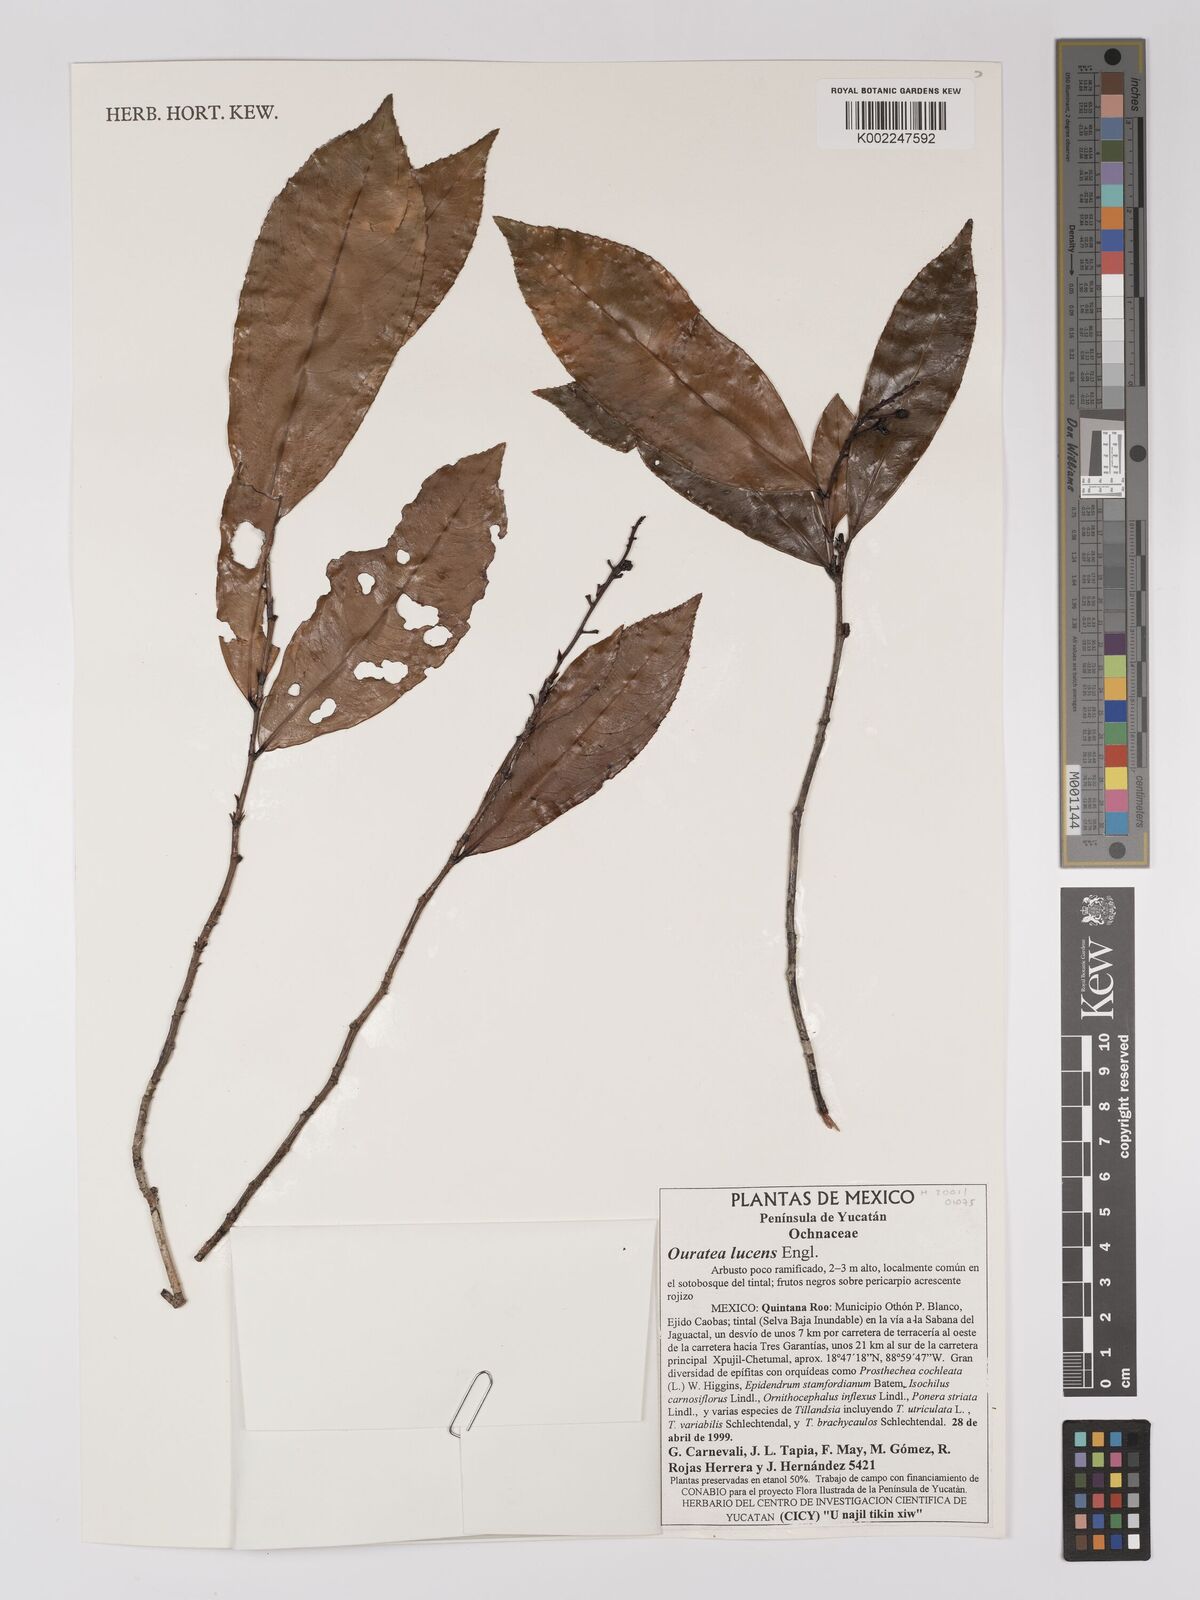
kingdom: Plantae
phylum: Tracheophyta
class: Magnoliopsida
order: Malpighiales
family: Ochnaceae
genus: Ouratea
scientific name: Ouratea lucens
